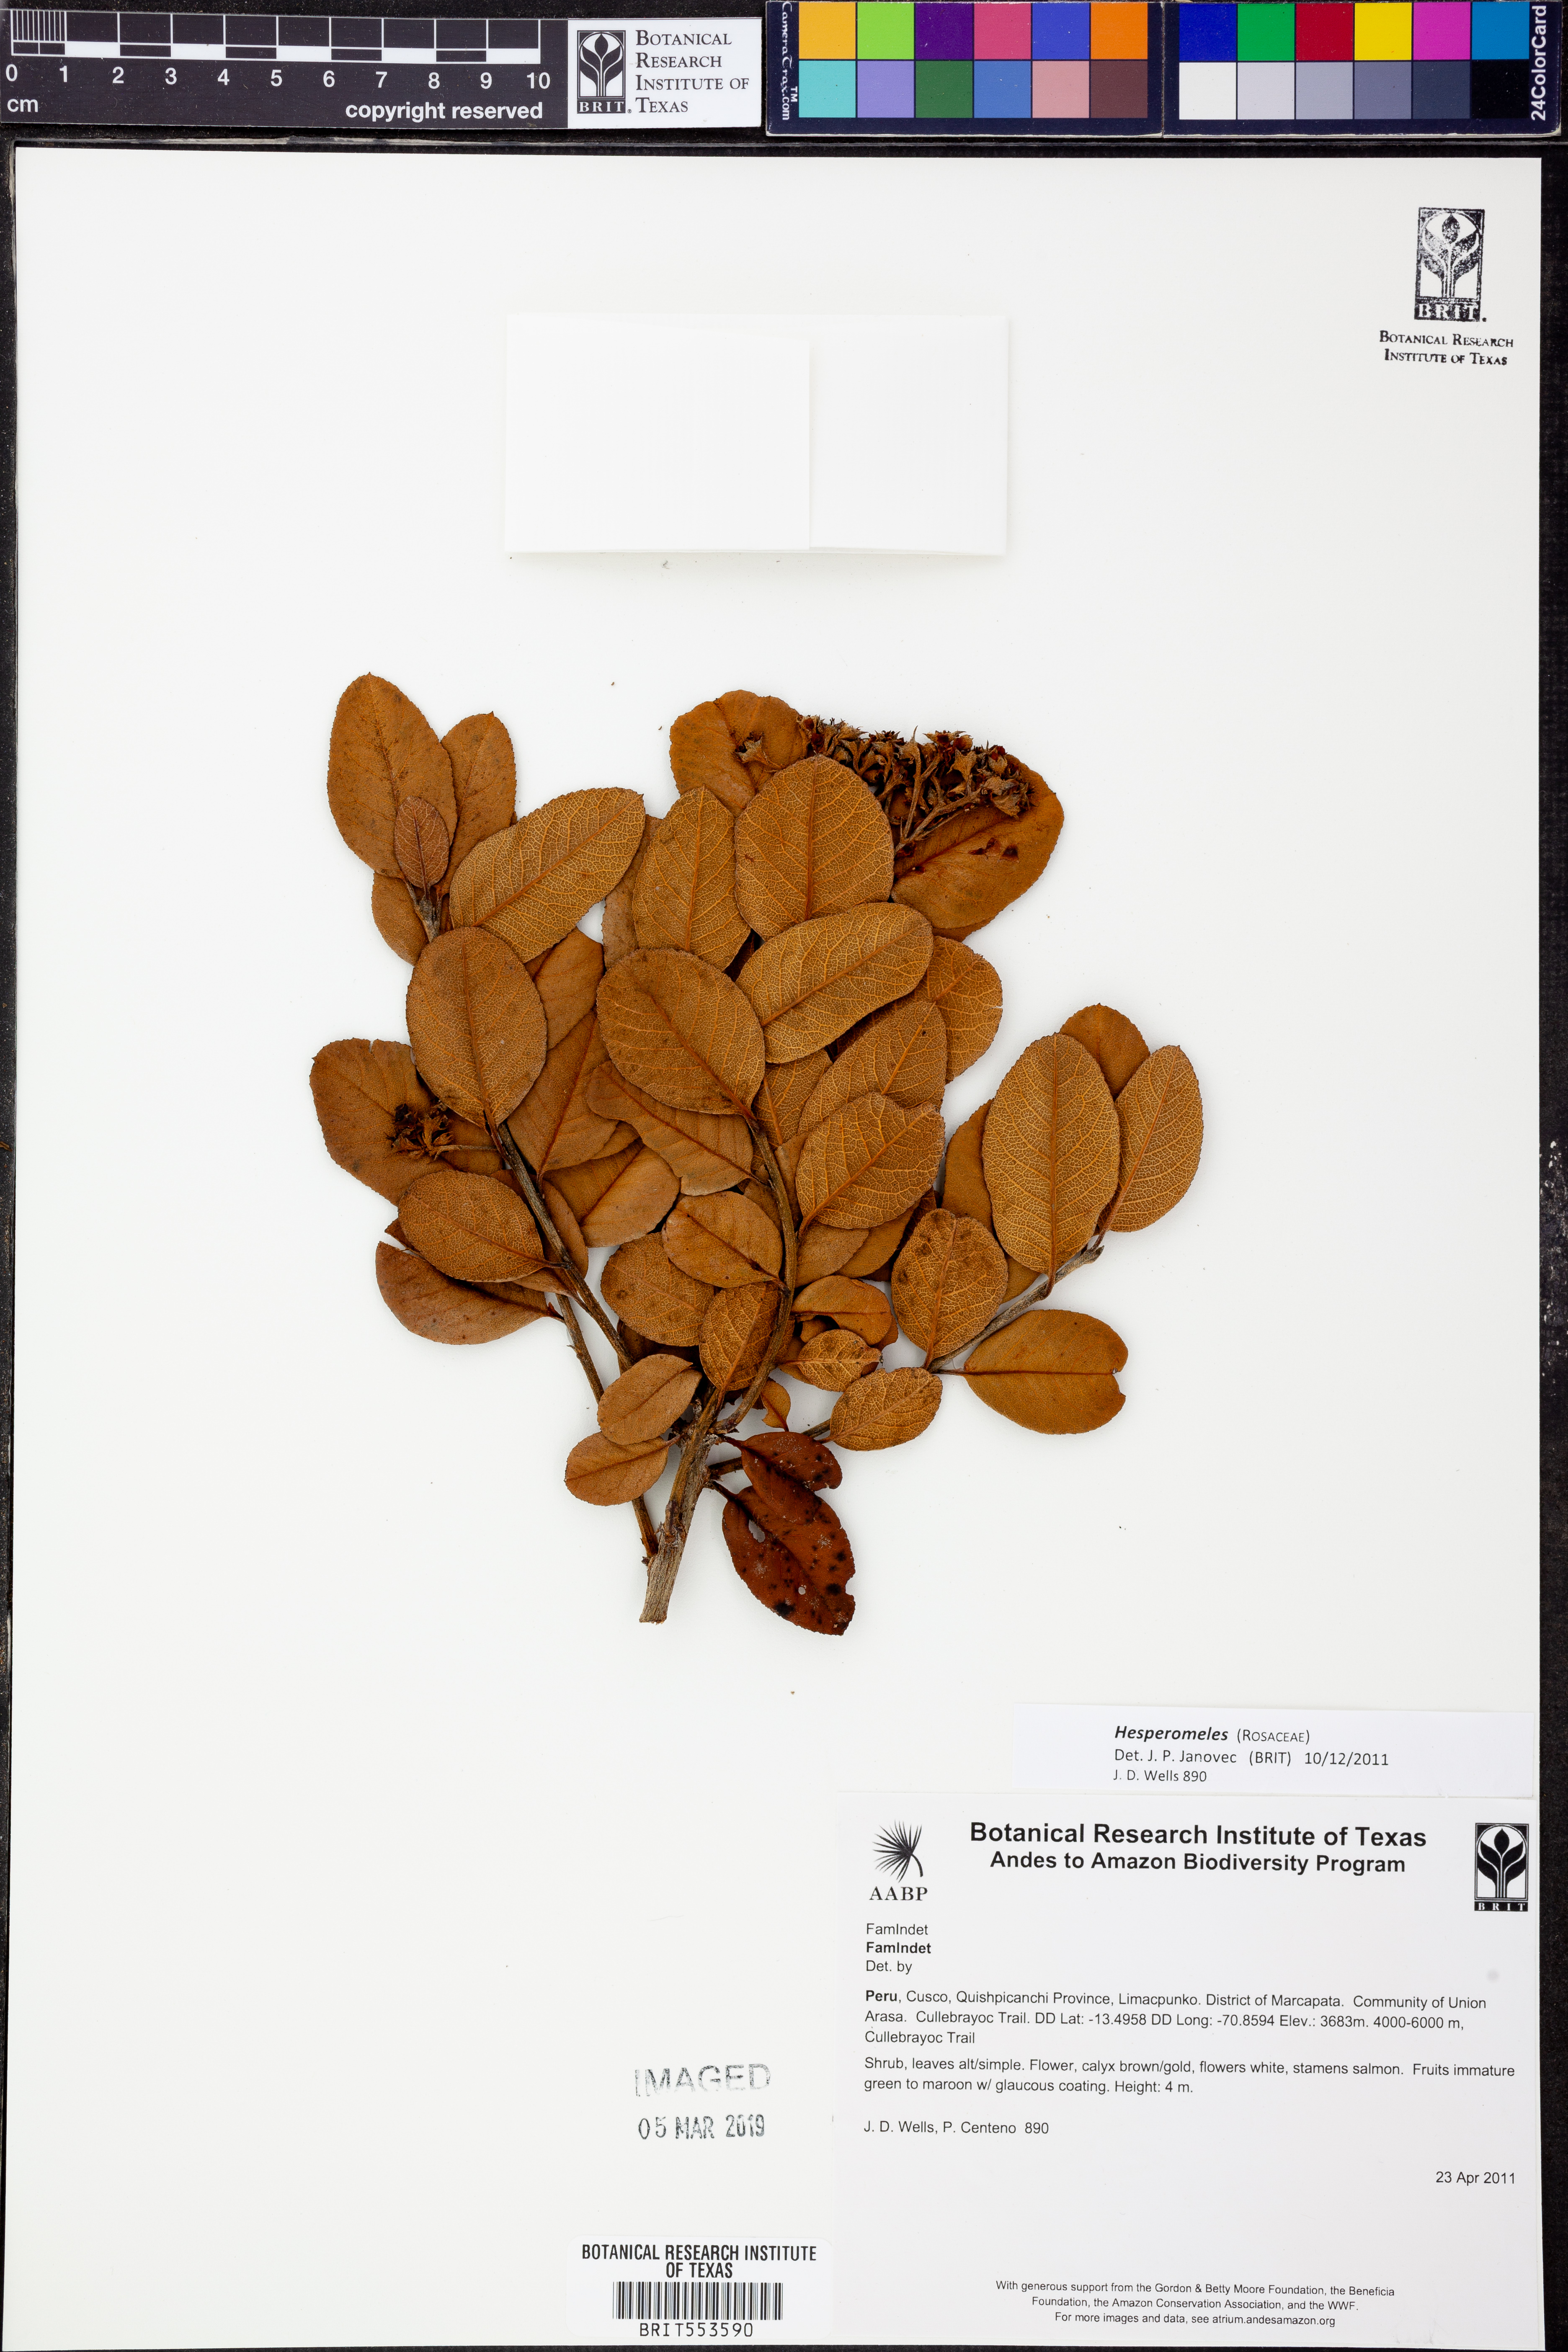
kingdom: Plantae
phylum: Tracheophyta
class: Magnoliopsida
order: Rosales
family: Rosaceae
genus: Hesperomeles
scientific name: Hesperomeles
